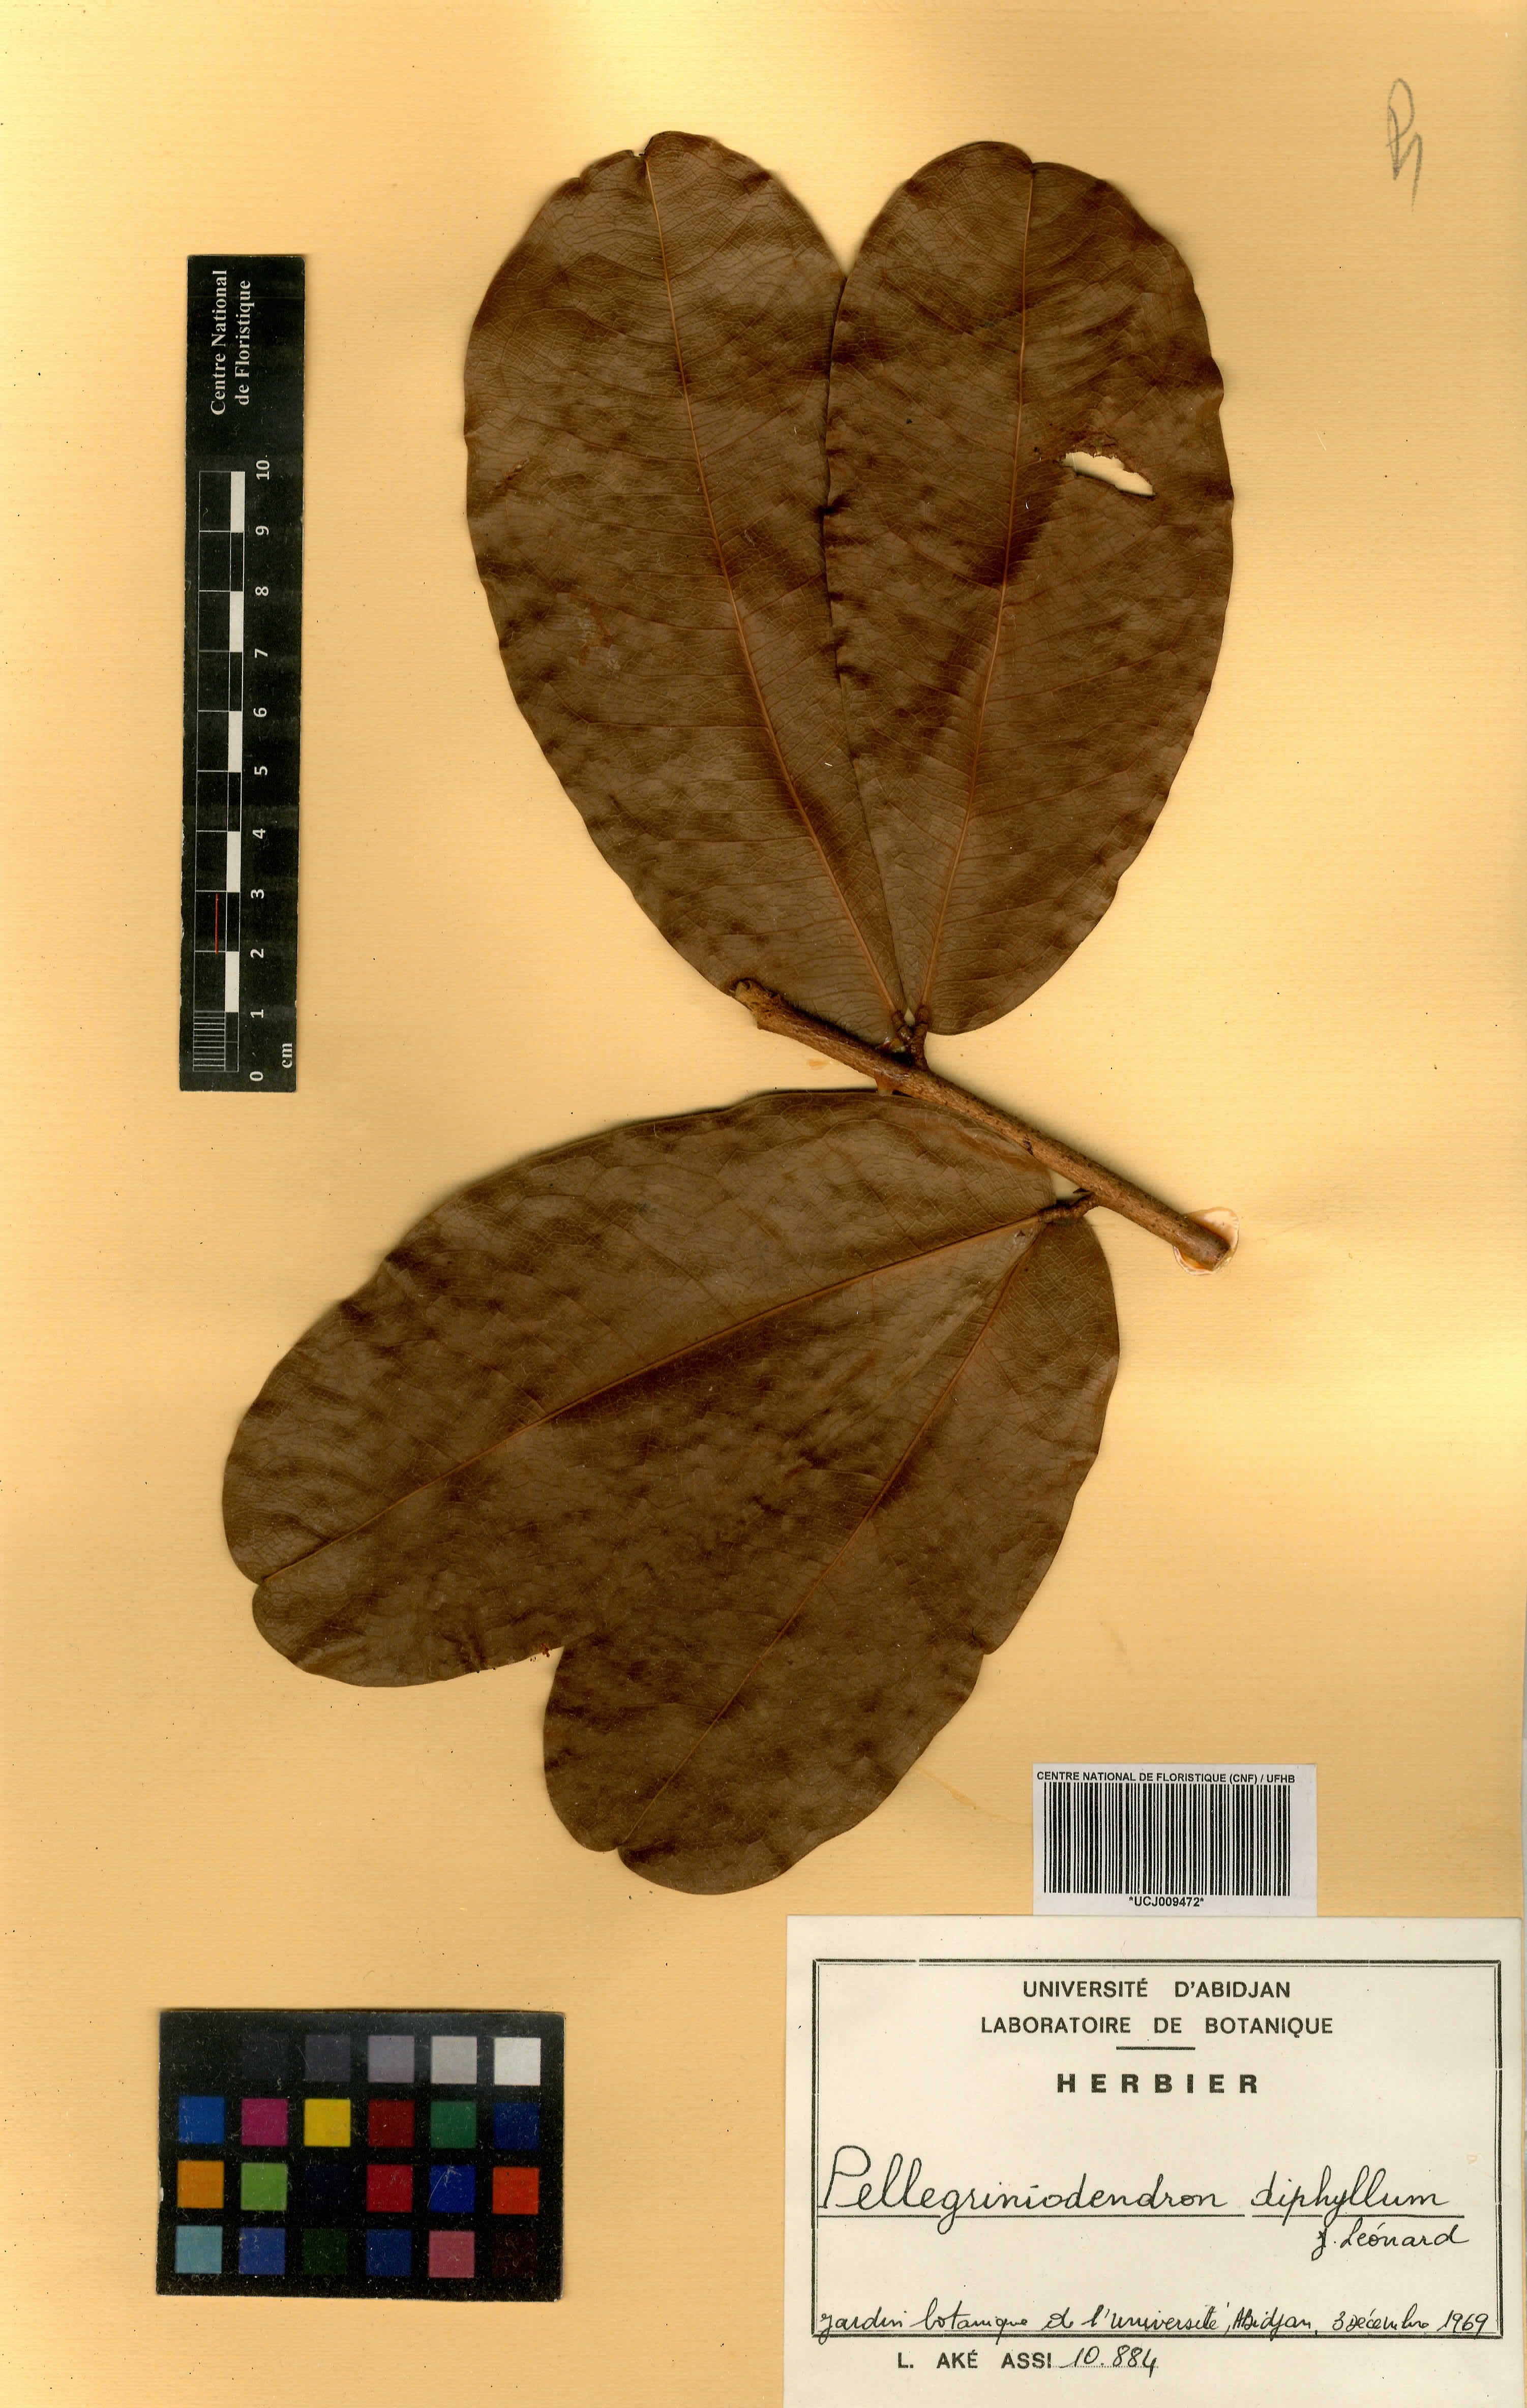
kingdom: Plantae
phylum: Tracheophyta
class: Magnoliopsida
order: Fabales
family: Fabaceae
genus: Gilbertiodendron
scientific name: Gilbertiodendron diphyllum
